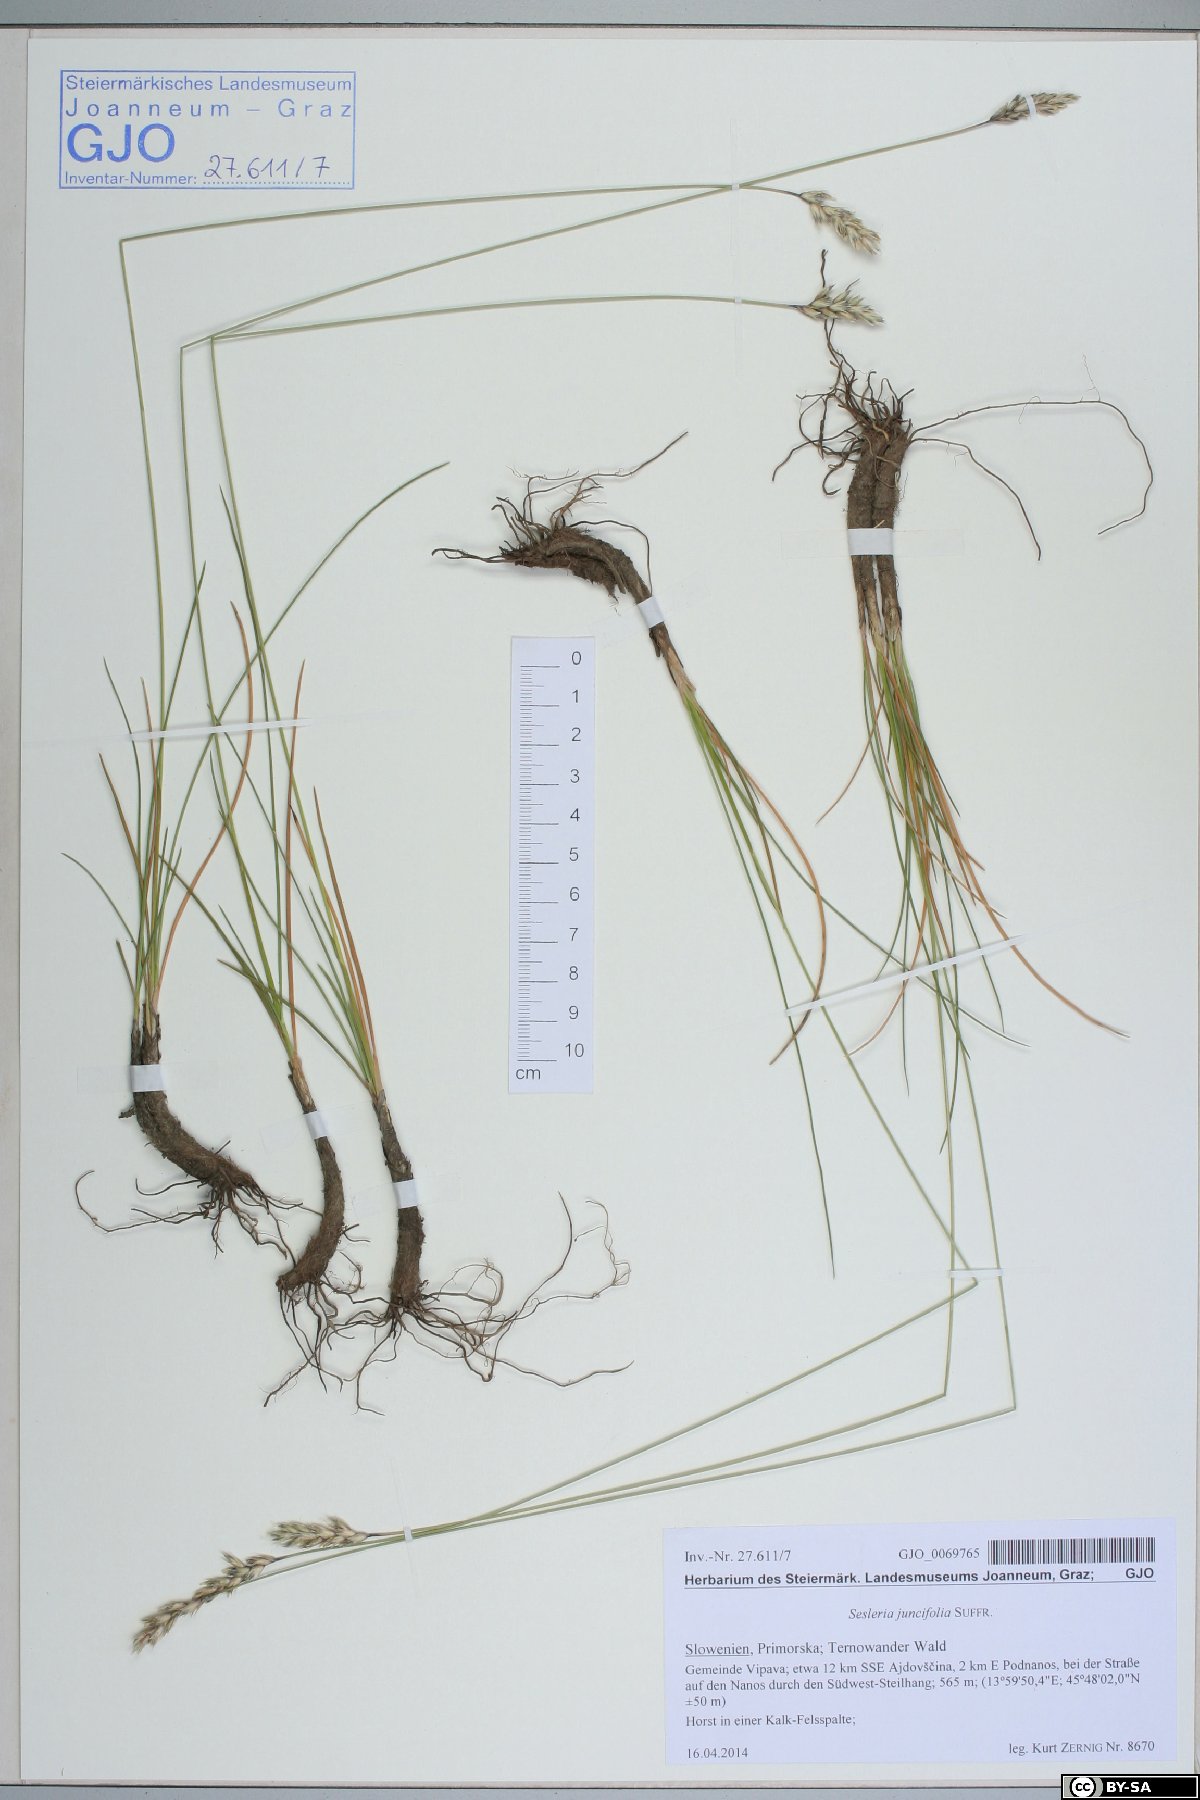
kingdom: Plantae
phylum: Tracheophyta
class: Liliopsida
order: Poales
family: Poaceae
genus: Sesleria
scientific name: Sesleria juncifolia
